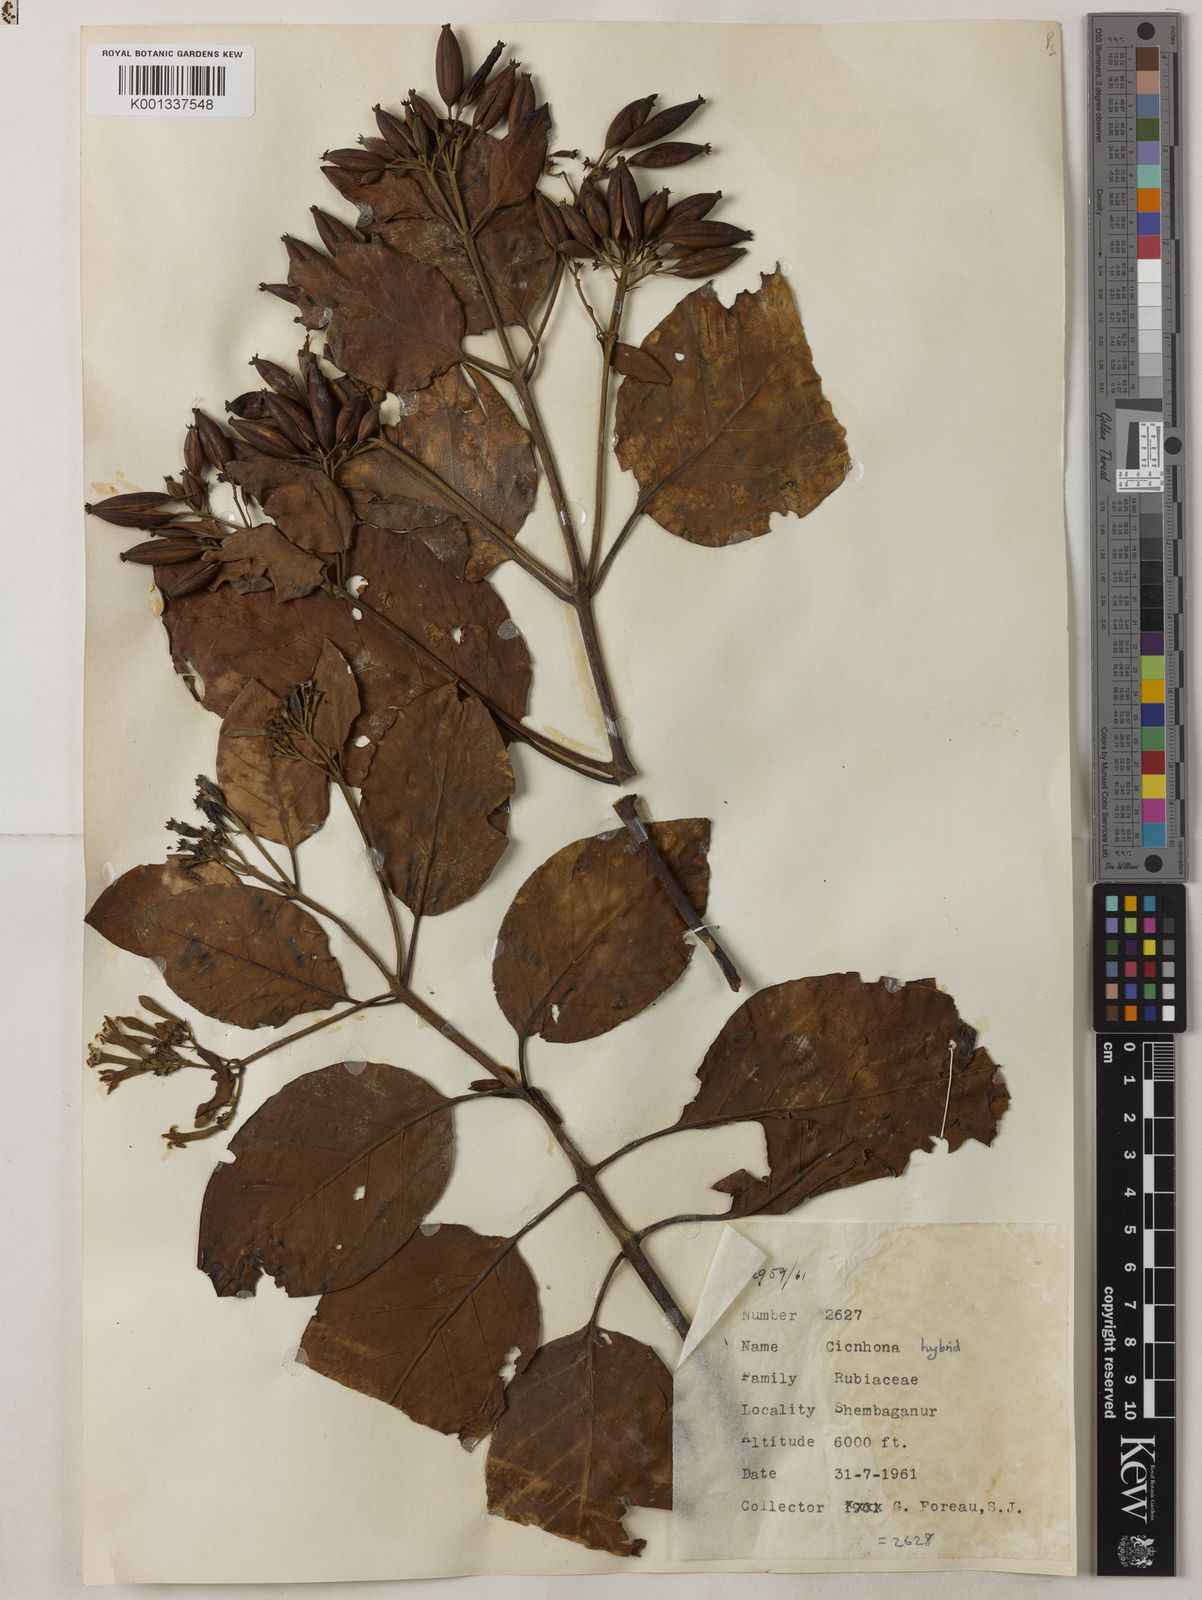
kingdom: Plantae
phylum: Tracheophyta
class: Magnoliopsida
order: Gentianales
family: Rubiaceae
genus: Cinchona
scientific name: Cinchona
